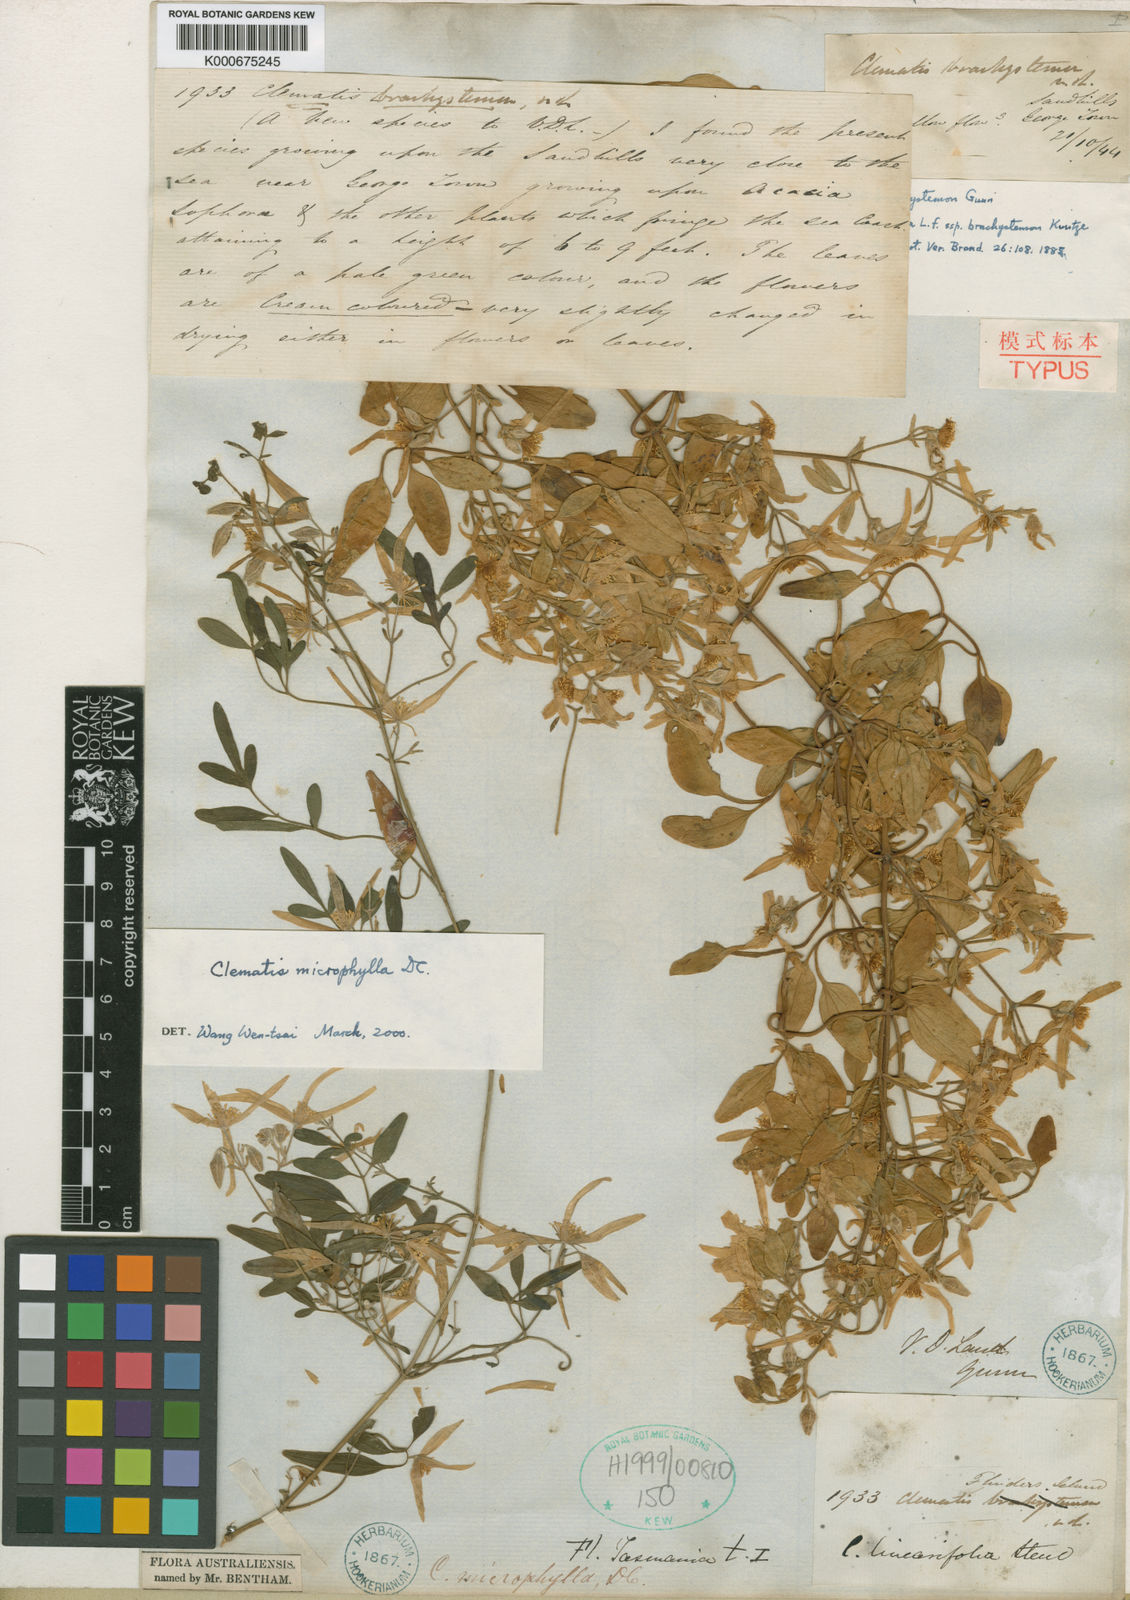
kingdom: Plantae
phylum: Tracheophyta
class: Magnoliopsida
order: Ranunculales
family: Ranunculaceae
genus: Clematis
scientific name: Clematis clitorioides
